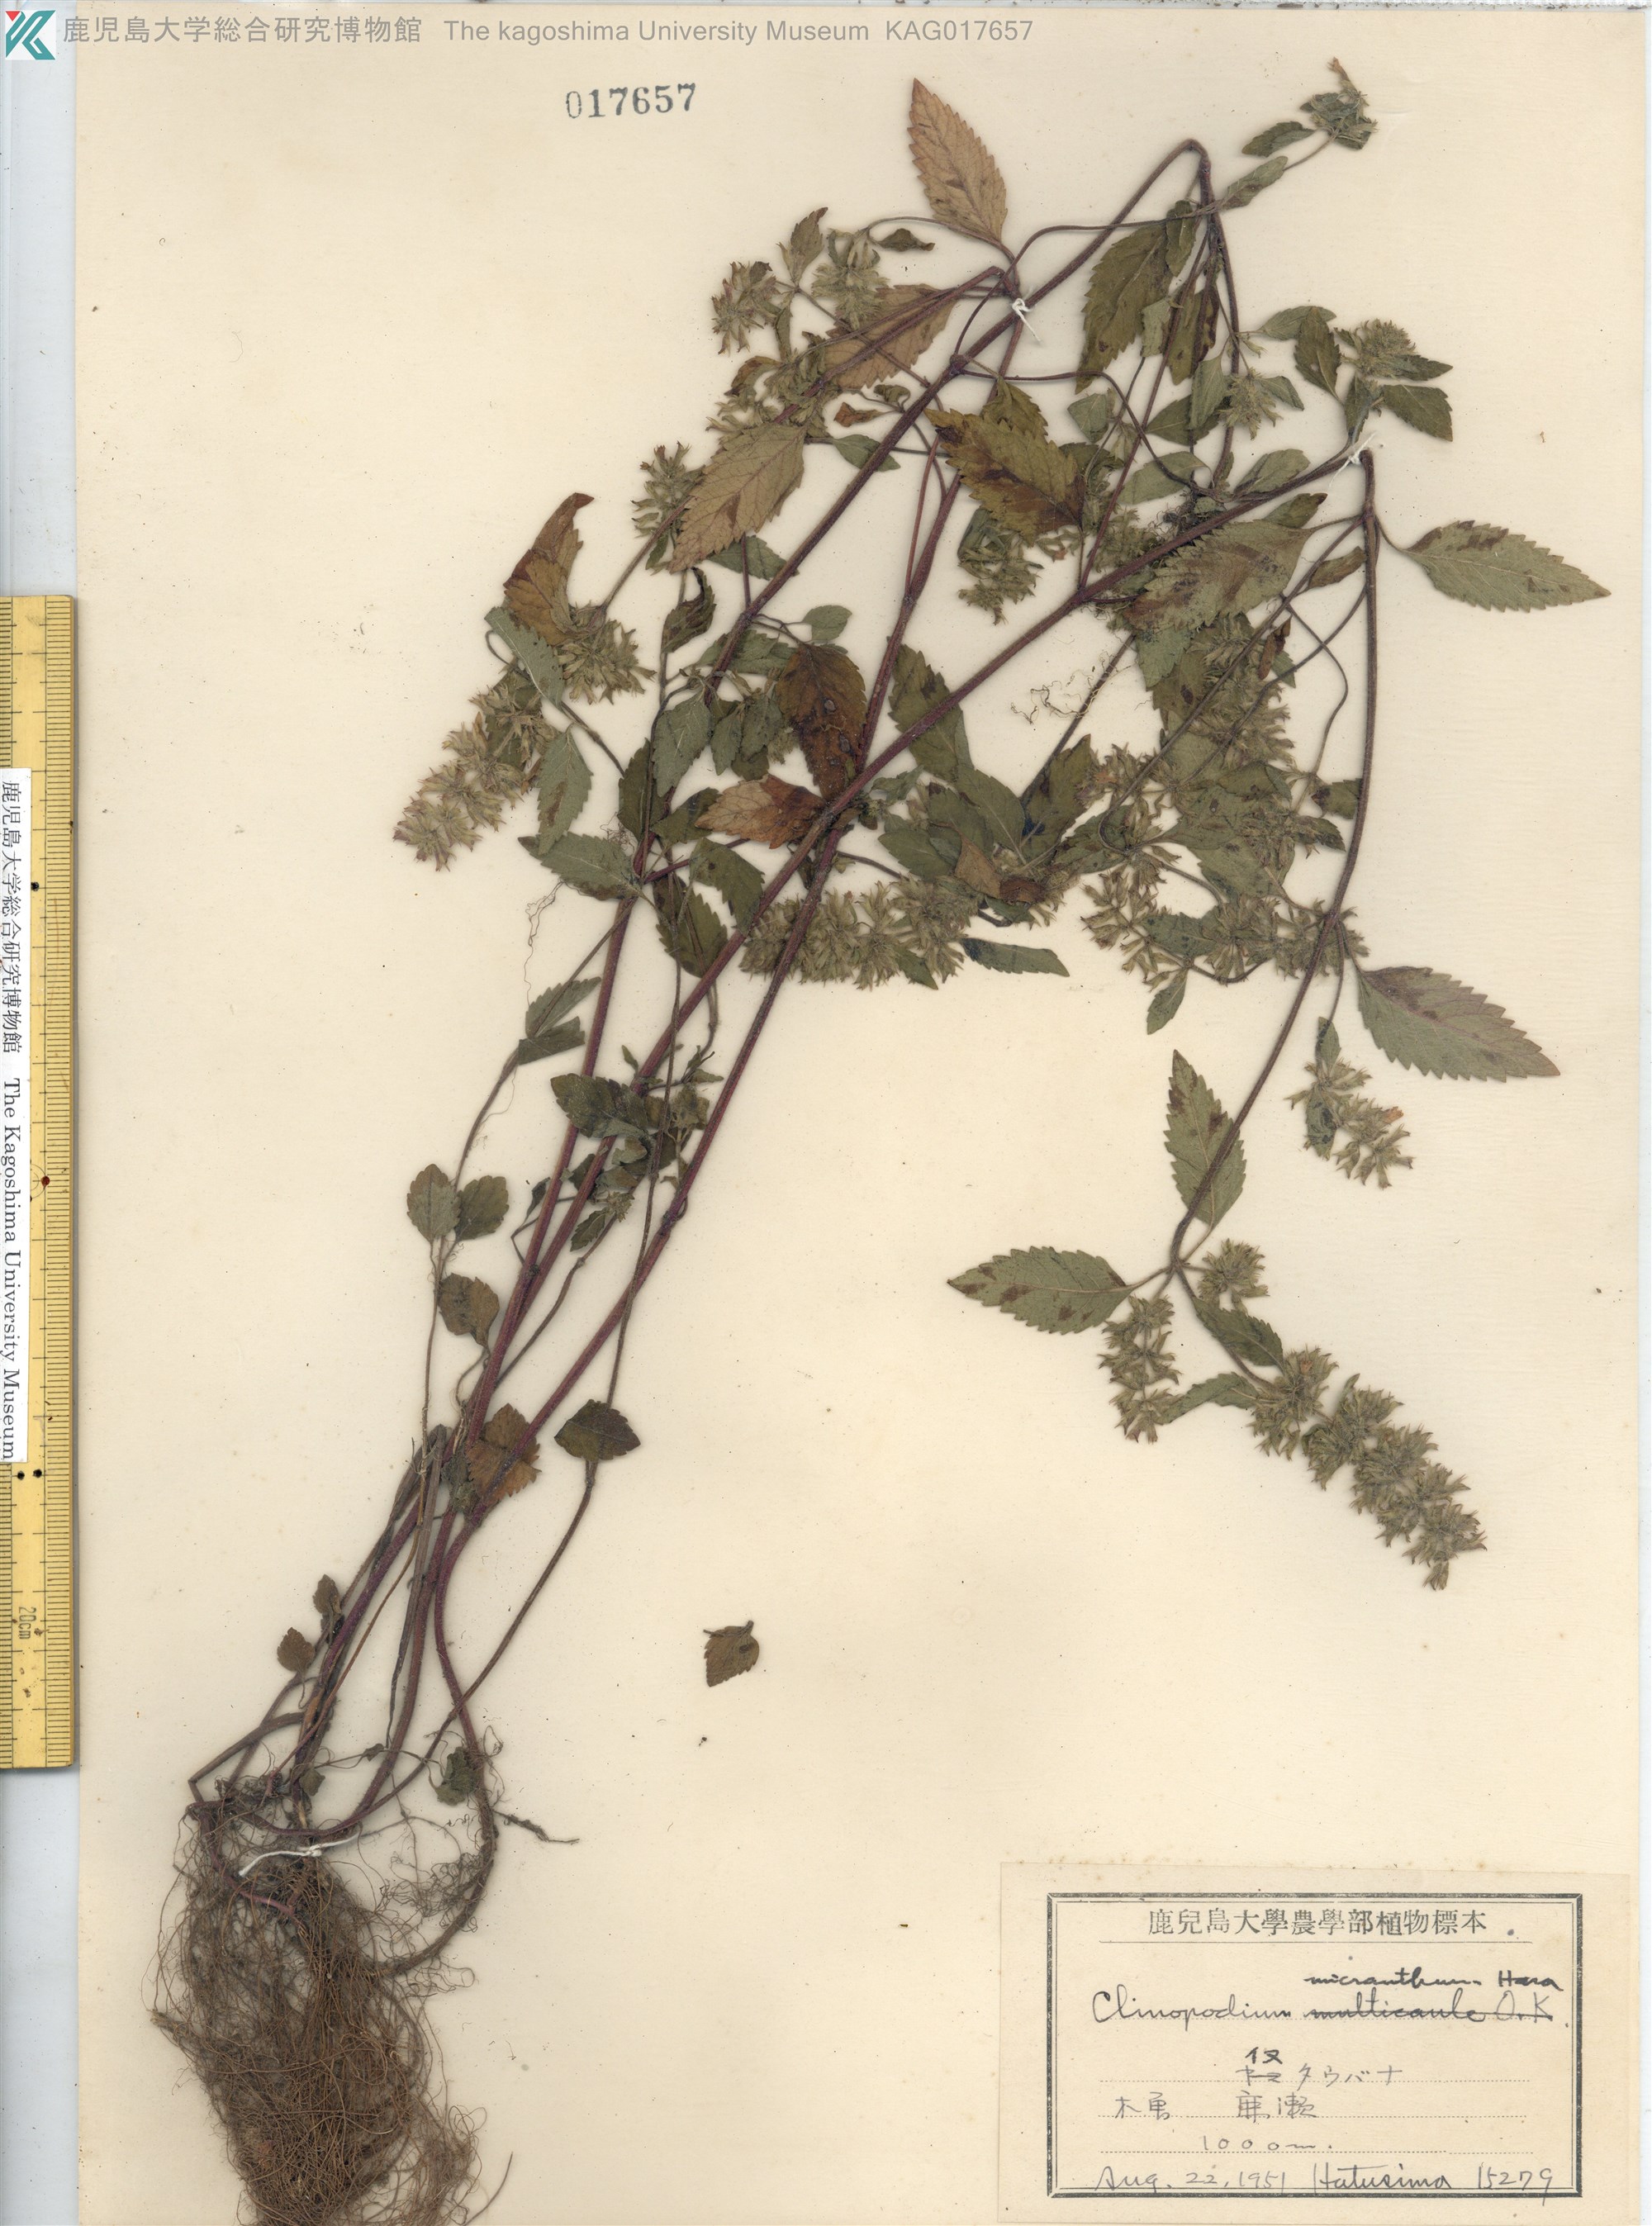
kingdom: Plantae
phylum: Tracheophyta
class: Magnoliopsida
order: Lamiales
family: Lamiaceae
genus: Clinopodium
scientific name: Clinopodium micranthum
